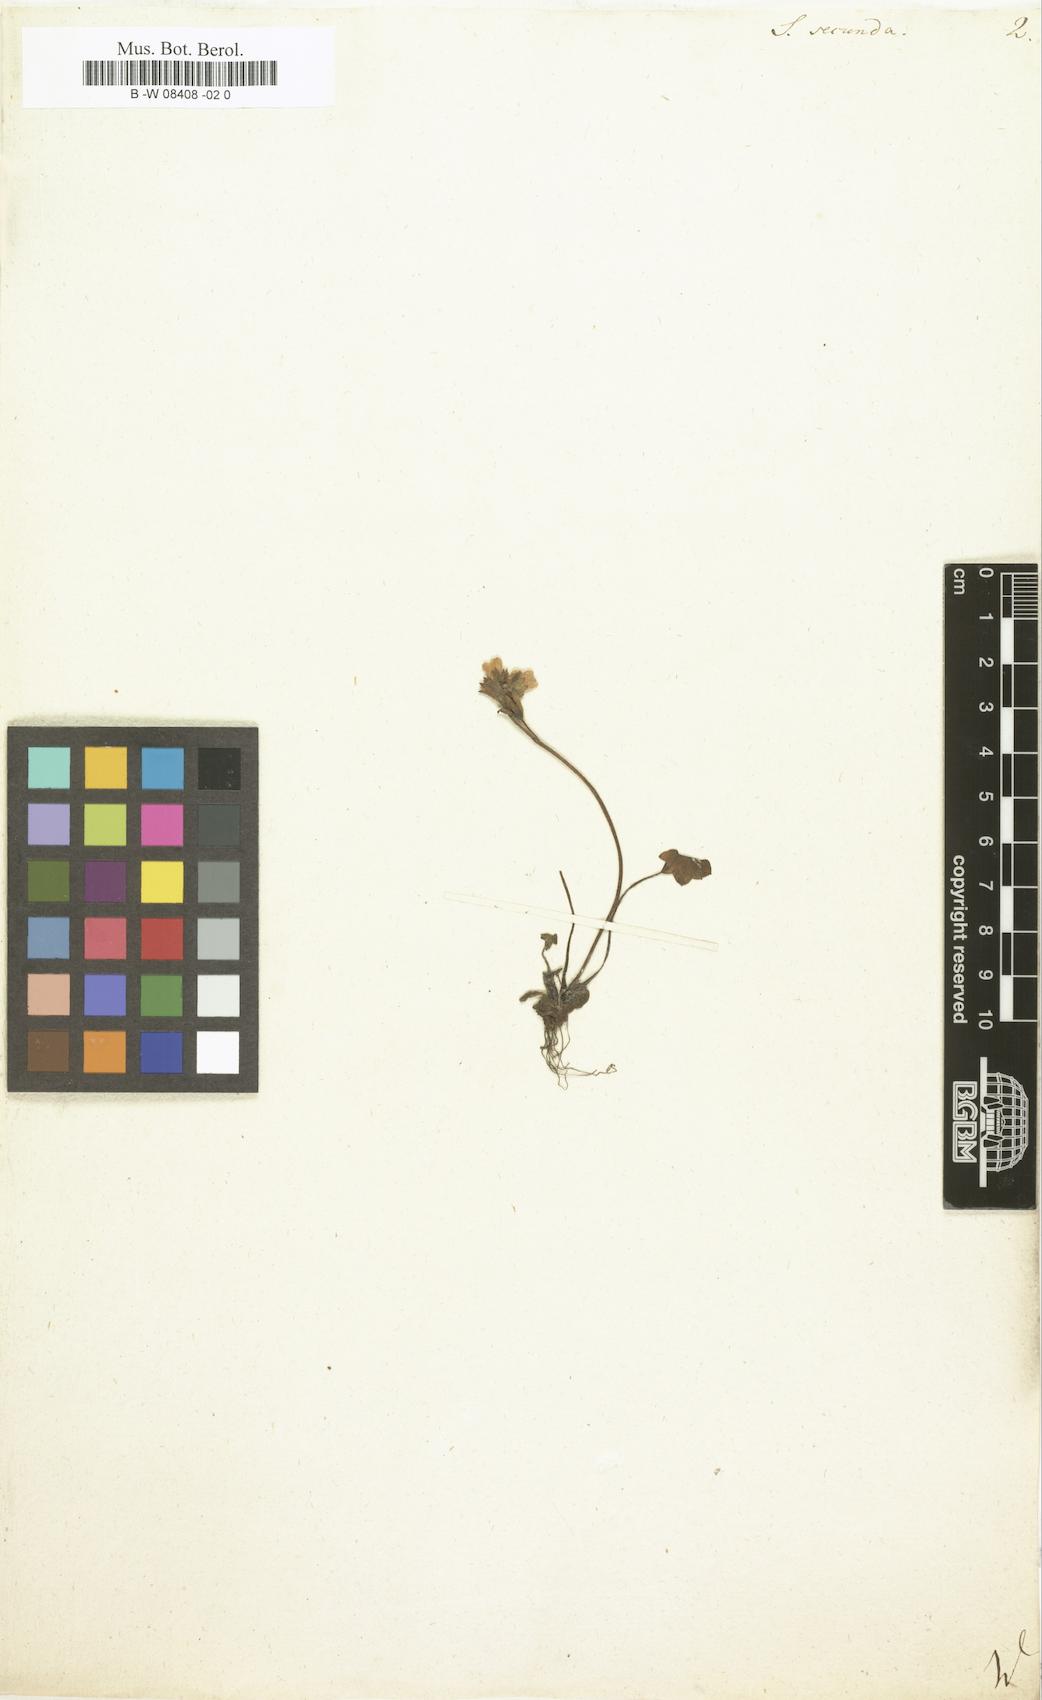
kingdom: Plantae
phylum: Tracheophyta
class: Magnoliopsida
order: Saxifragales
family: Saxifragaceae
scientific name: Saxifragaceae
